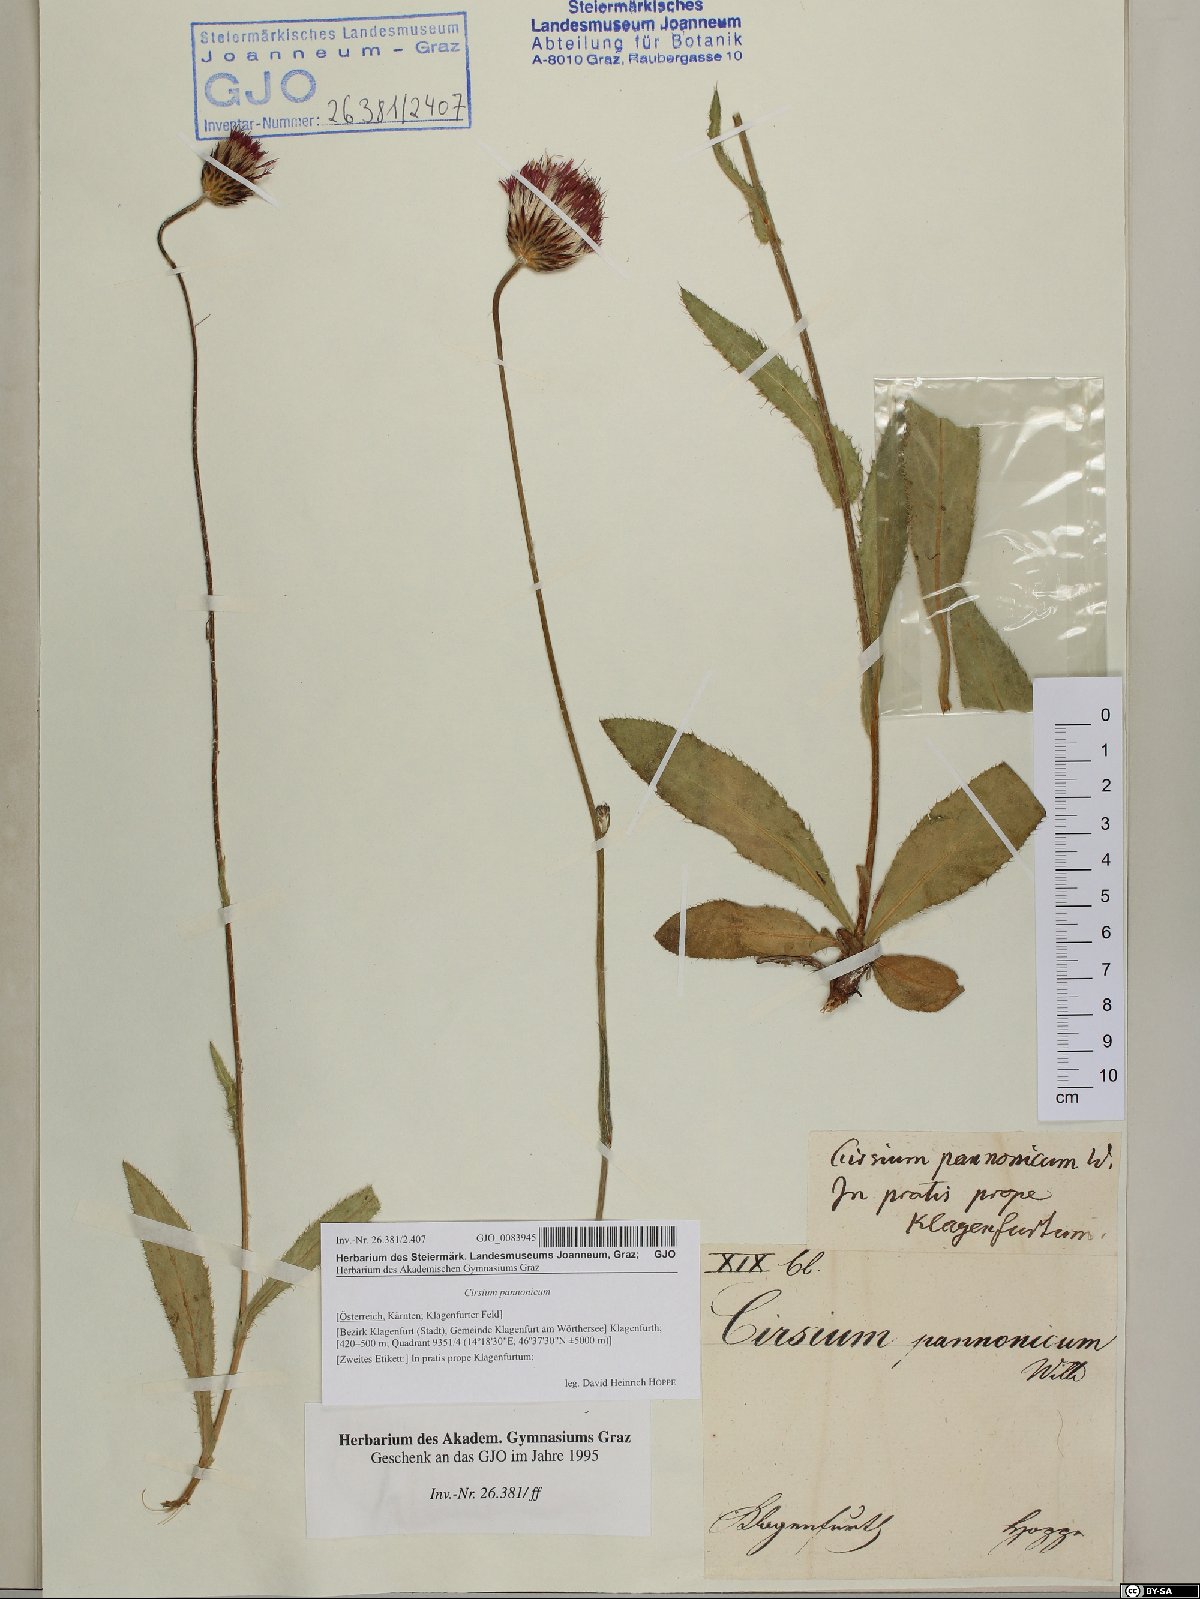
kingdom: Plantae
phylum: Tracheophyta
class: Magnoliopsida
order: Asterales
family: Asteraceae
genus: Cirsium
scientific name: Cirsium pannonicum
